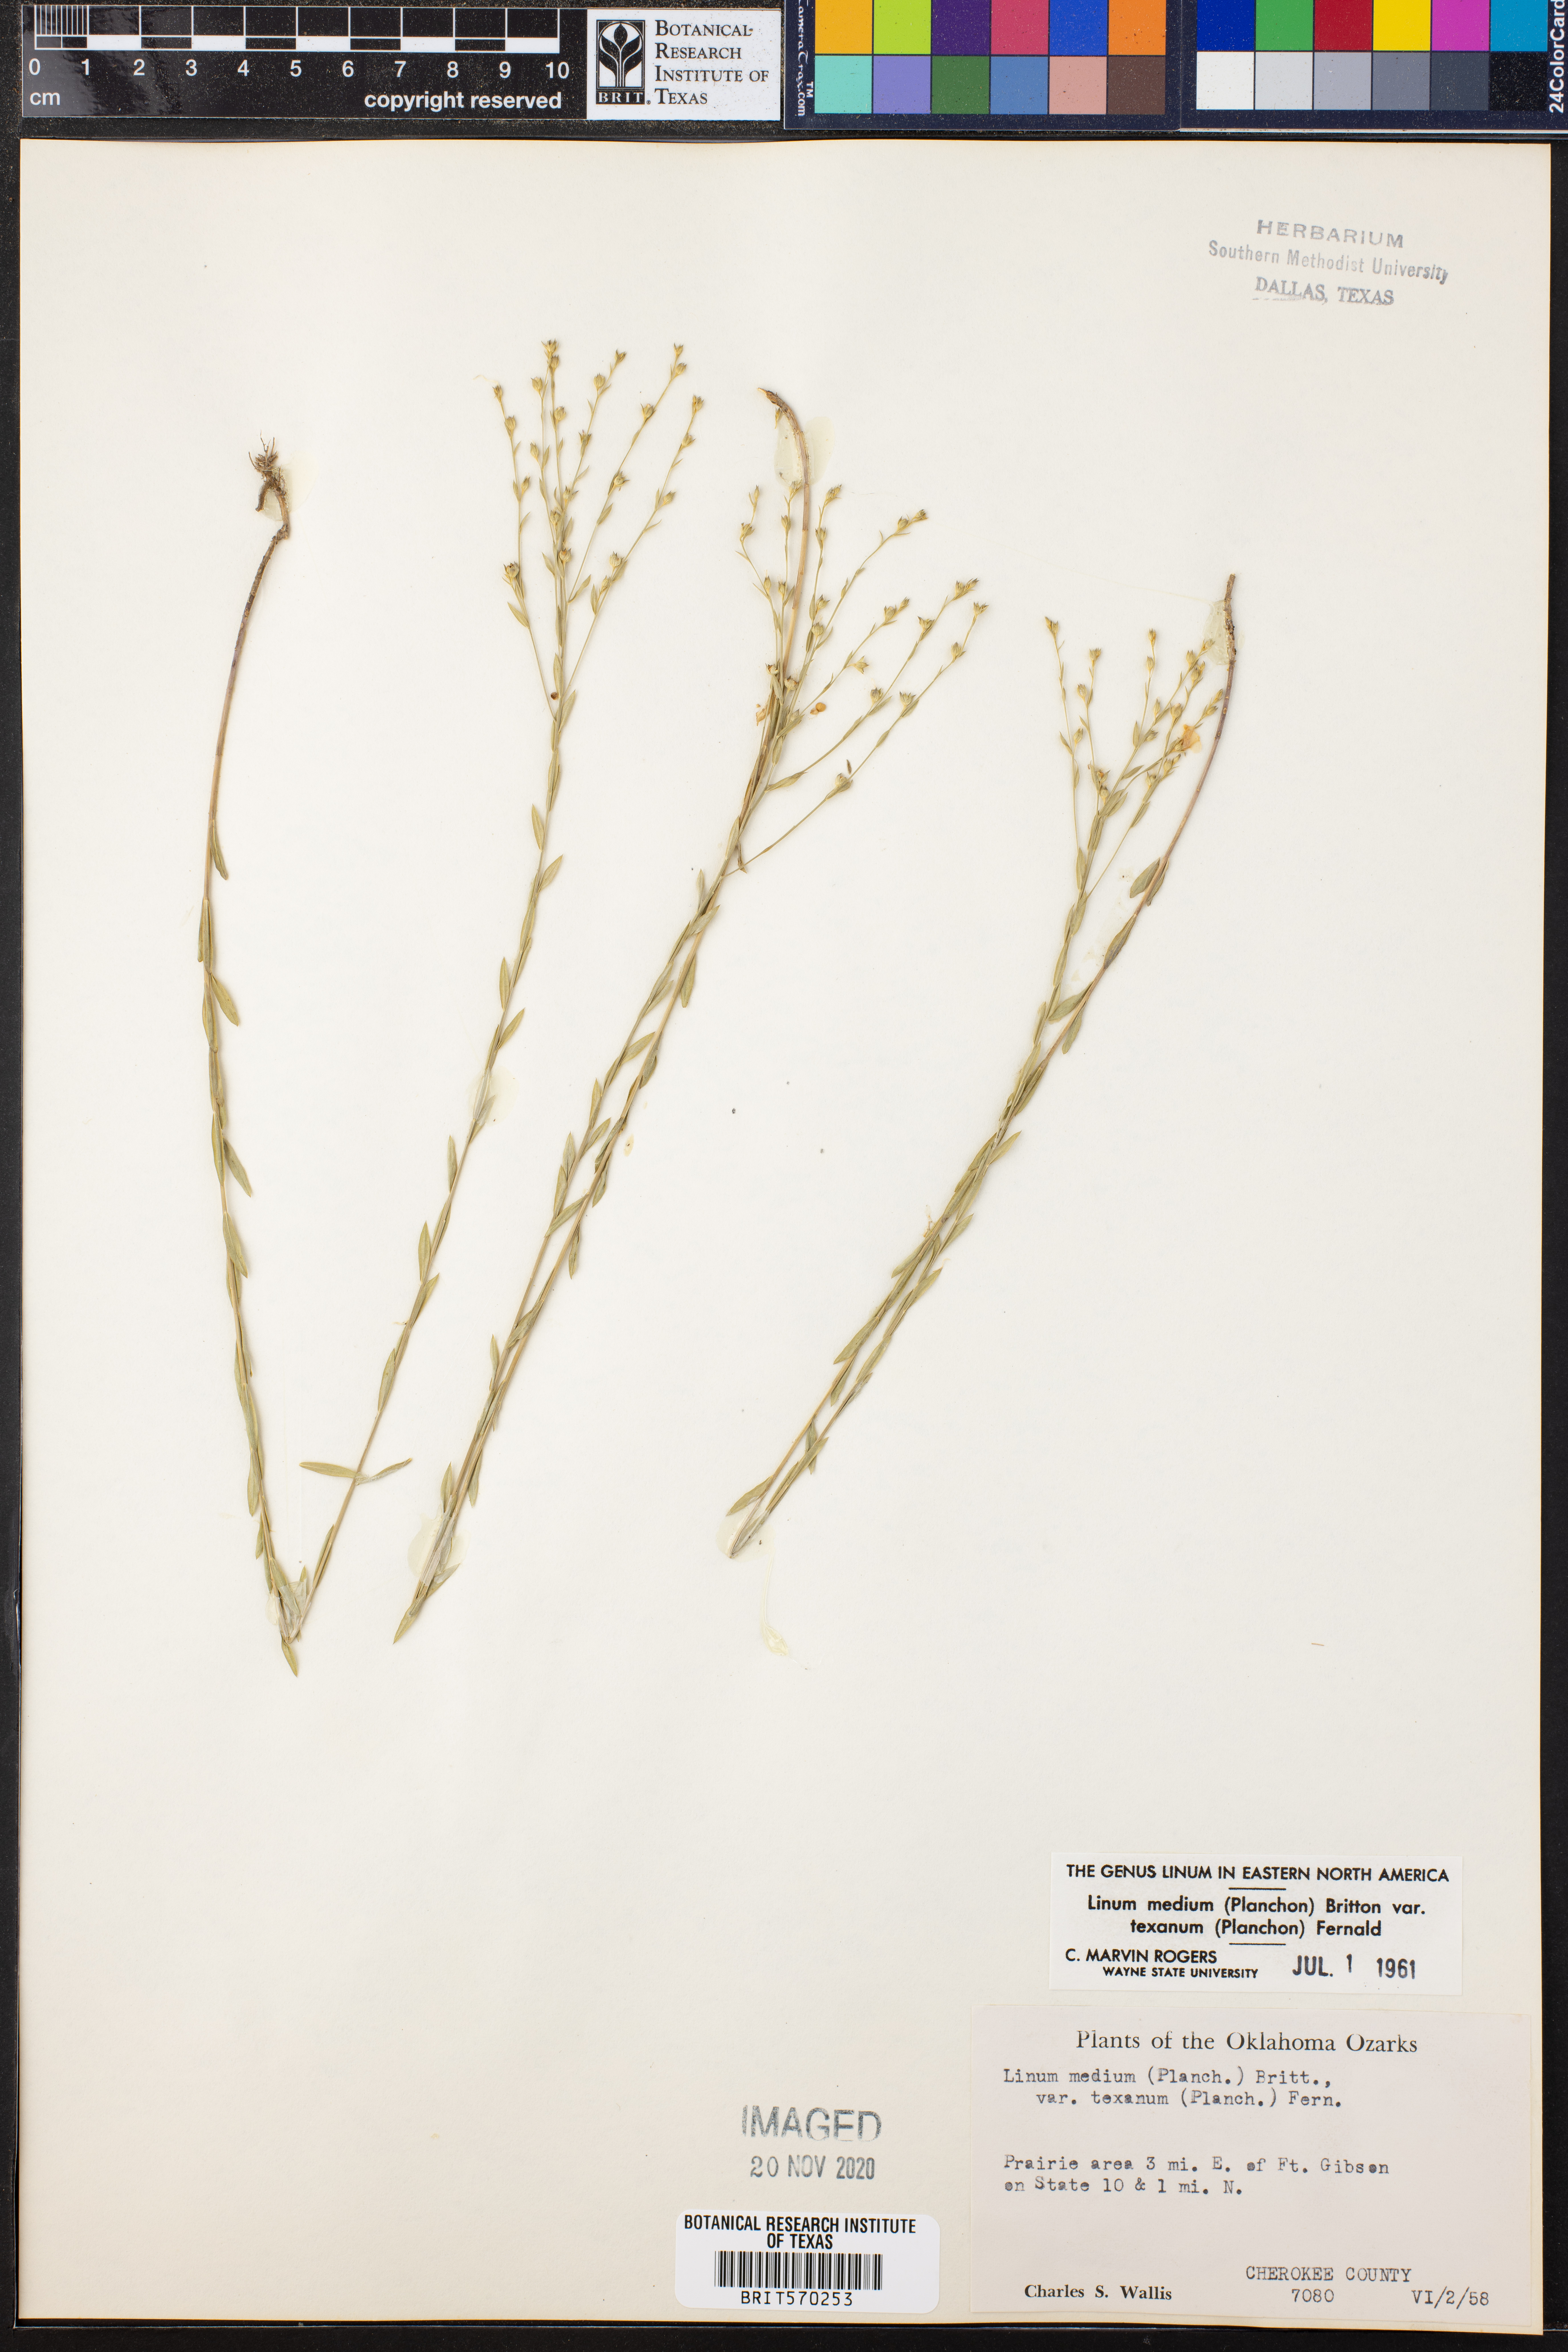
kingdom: Plantae
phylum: Tracheophyta
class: Magnoliopsida
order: Malpighiales
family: Linaceae
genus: Linum
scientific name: Linum medium
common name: Stiff yellow flax
